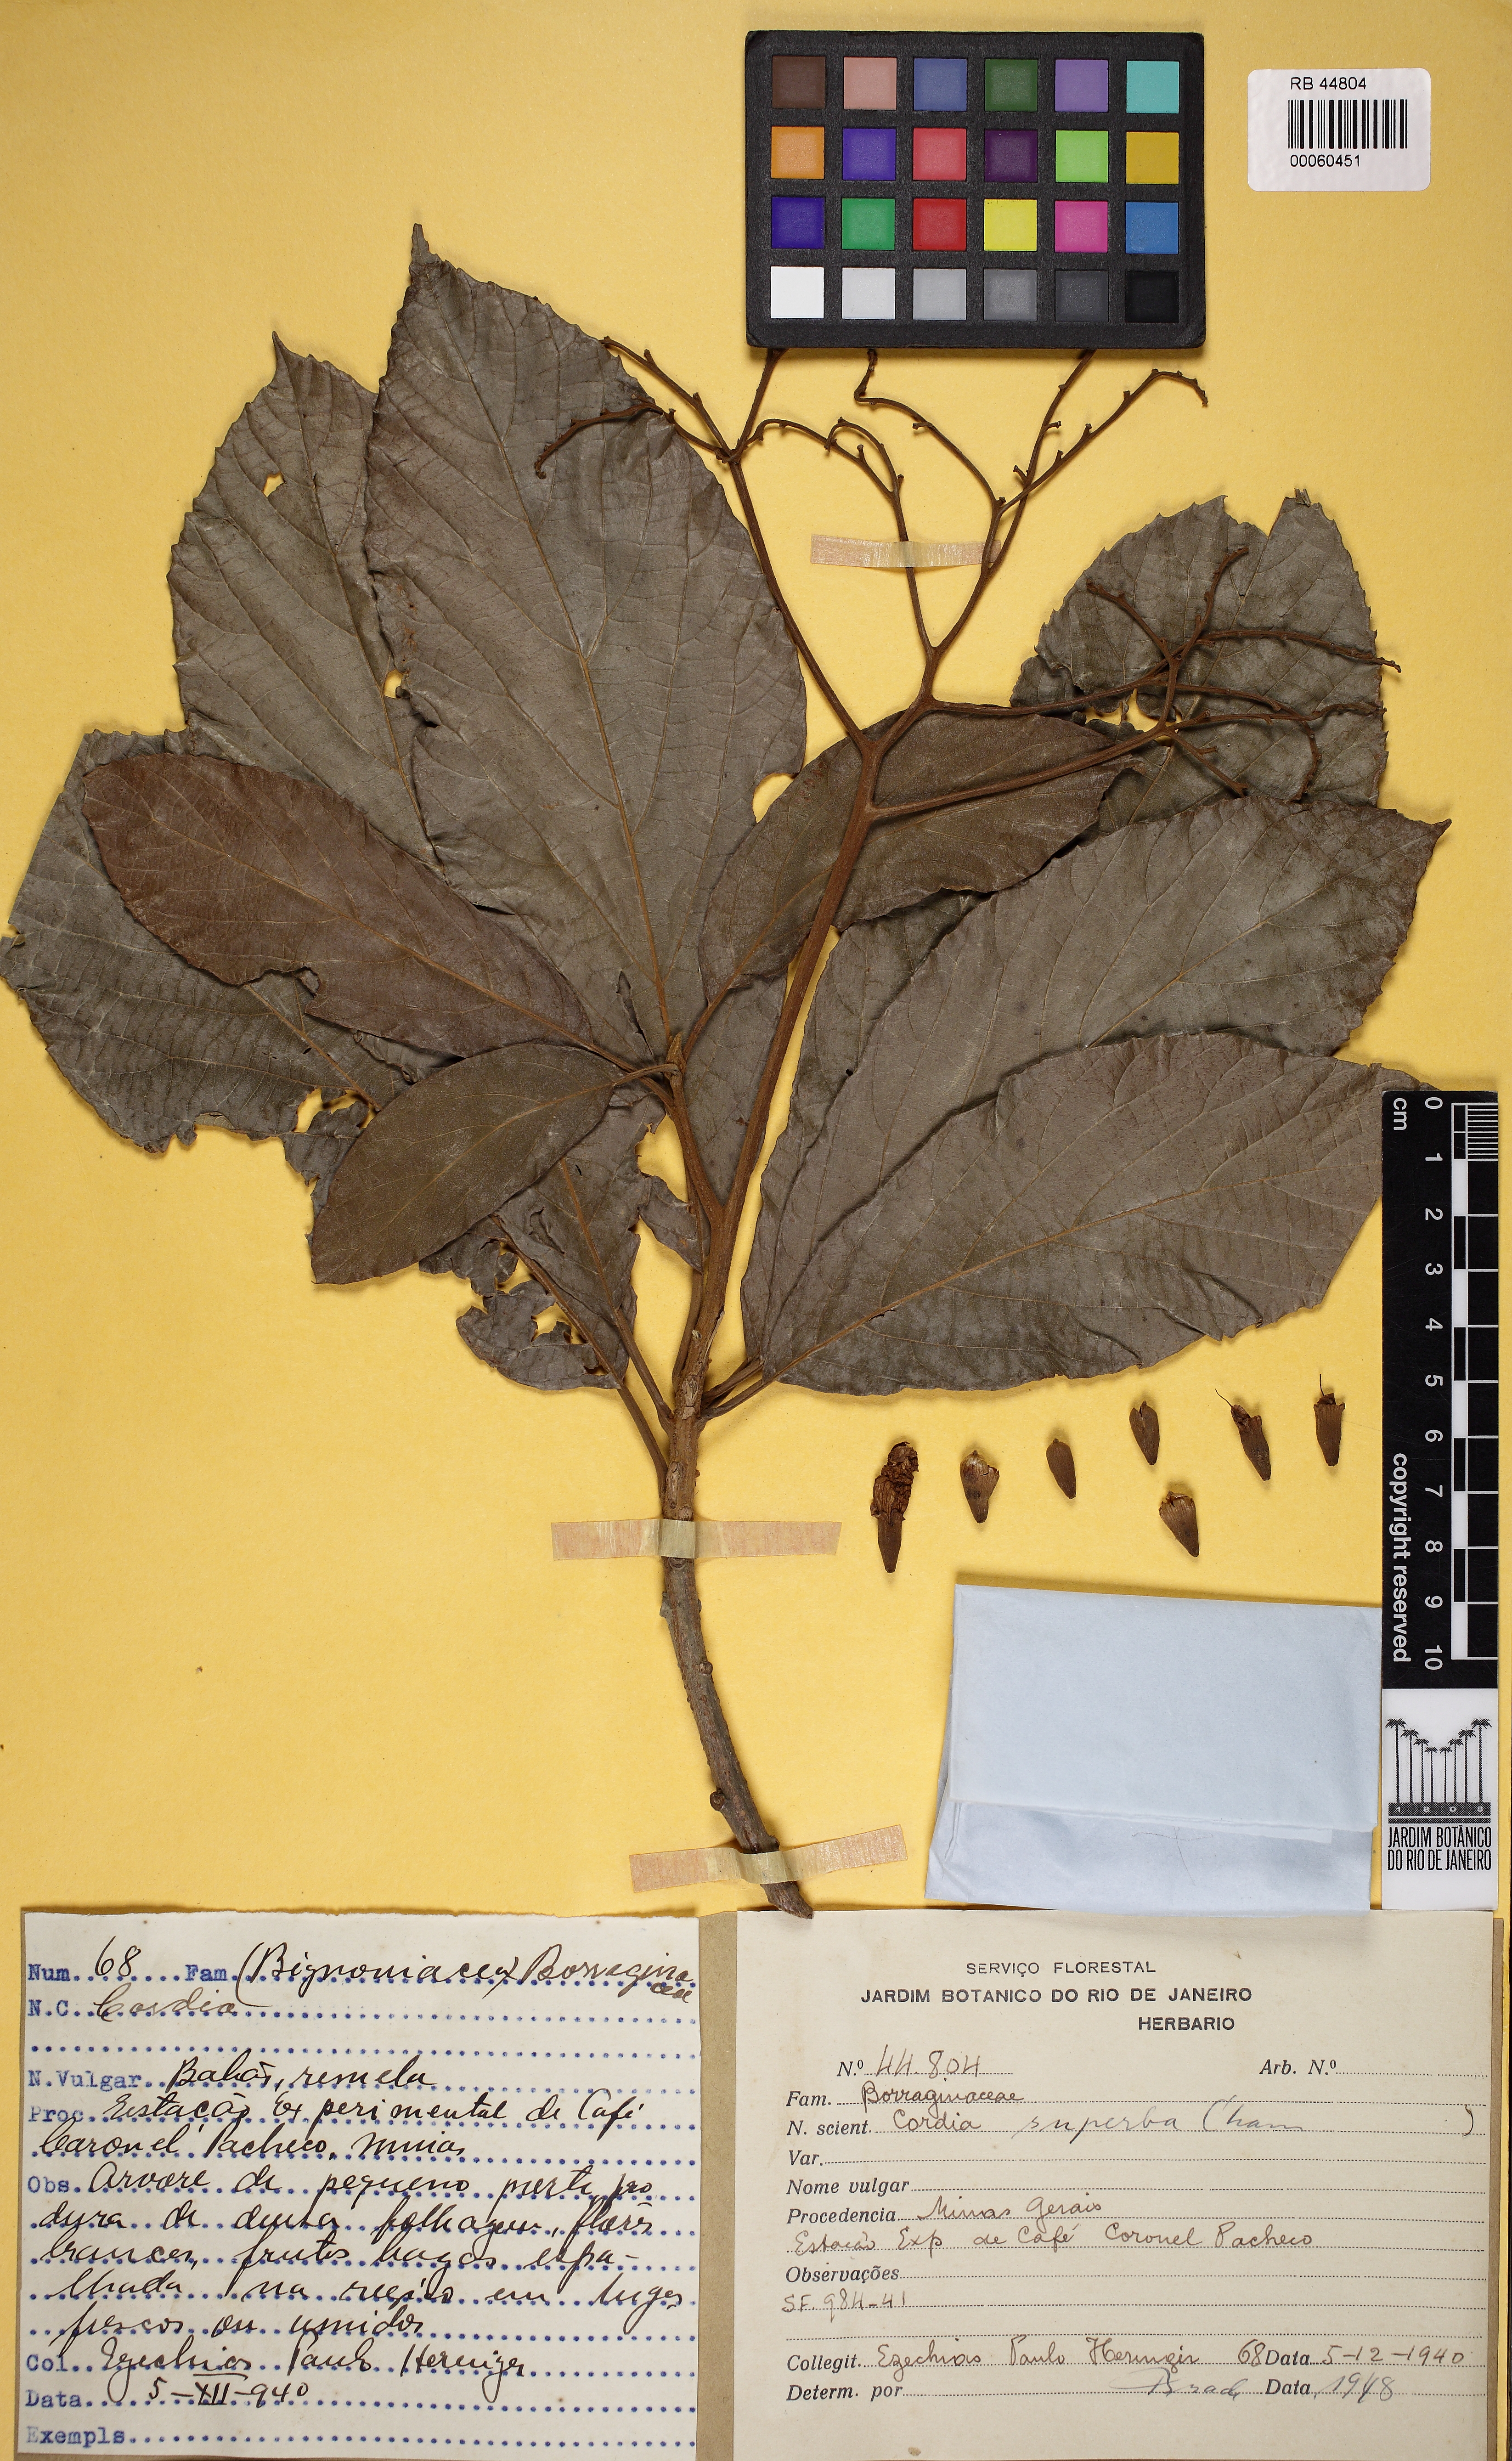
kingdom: Plantae
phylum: Tracheophyta
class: Magnoliopsida
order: Boraginales
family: Cordiaceae
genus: Cordia
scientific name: Cordia superba
